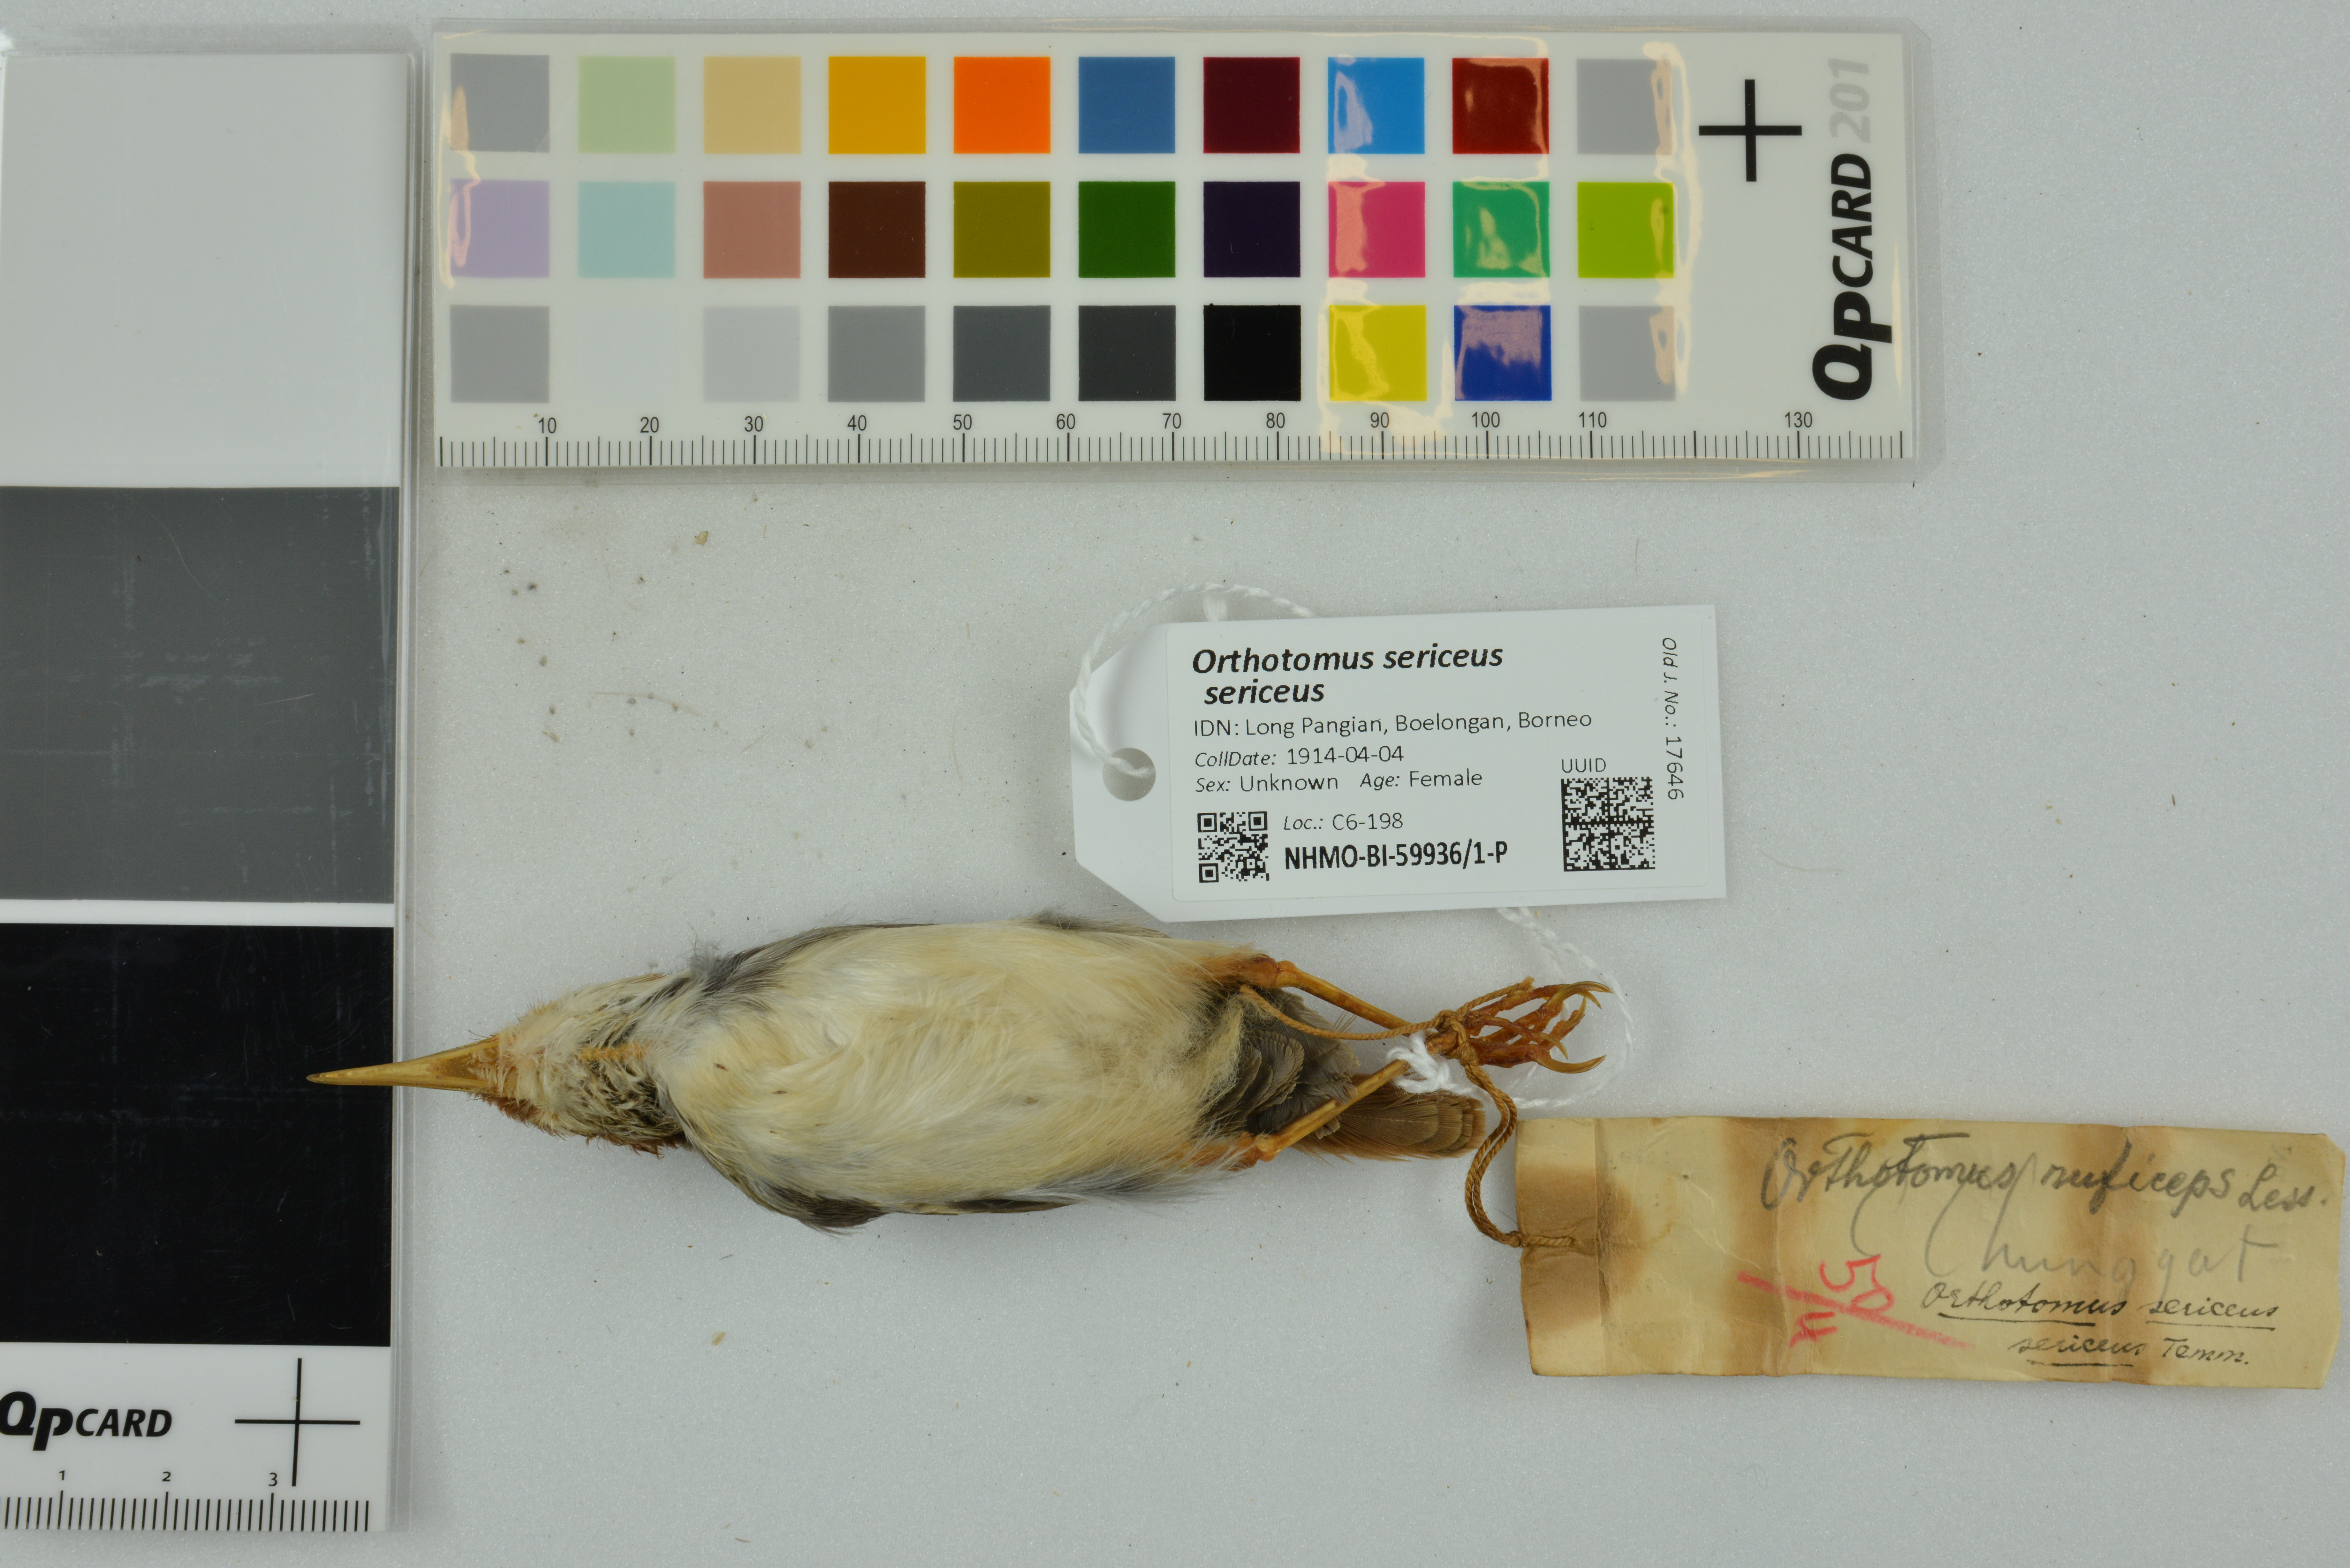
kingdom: Animalia
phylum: Chordata
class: Aves
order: Passeriformes
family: Cisticolidae
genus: Orthotomus
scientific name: Orthotomus sericeus
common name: Rufous-tailed tailorbird
